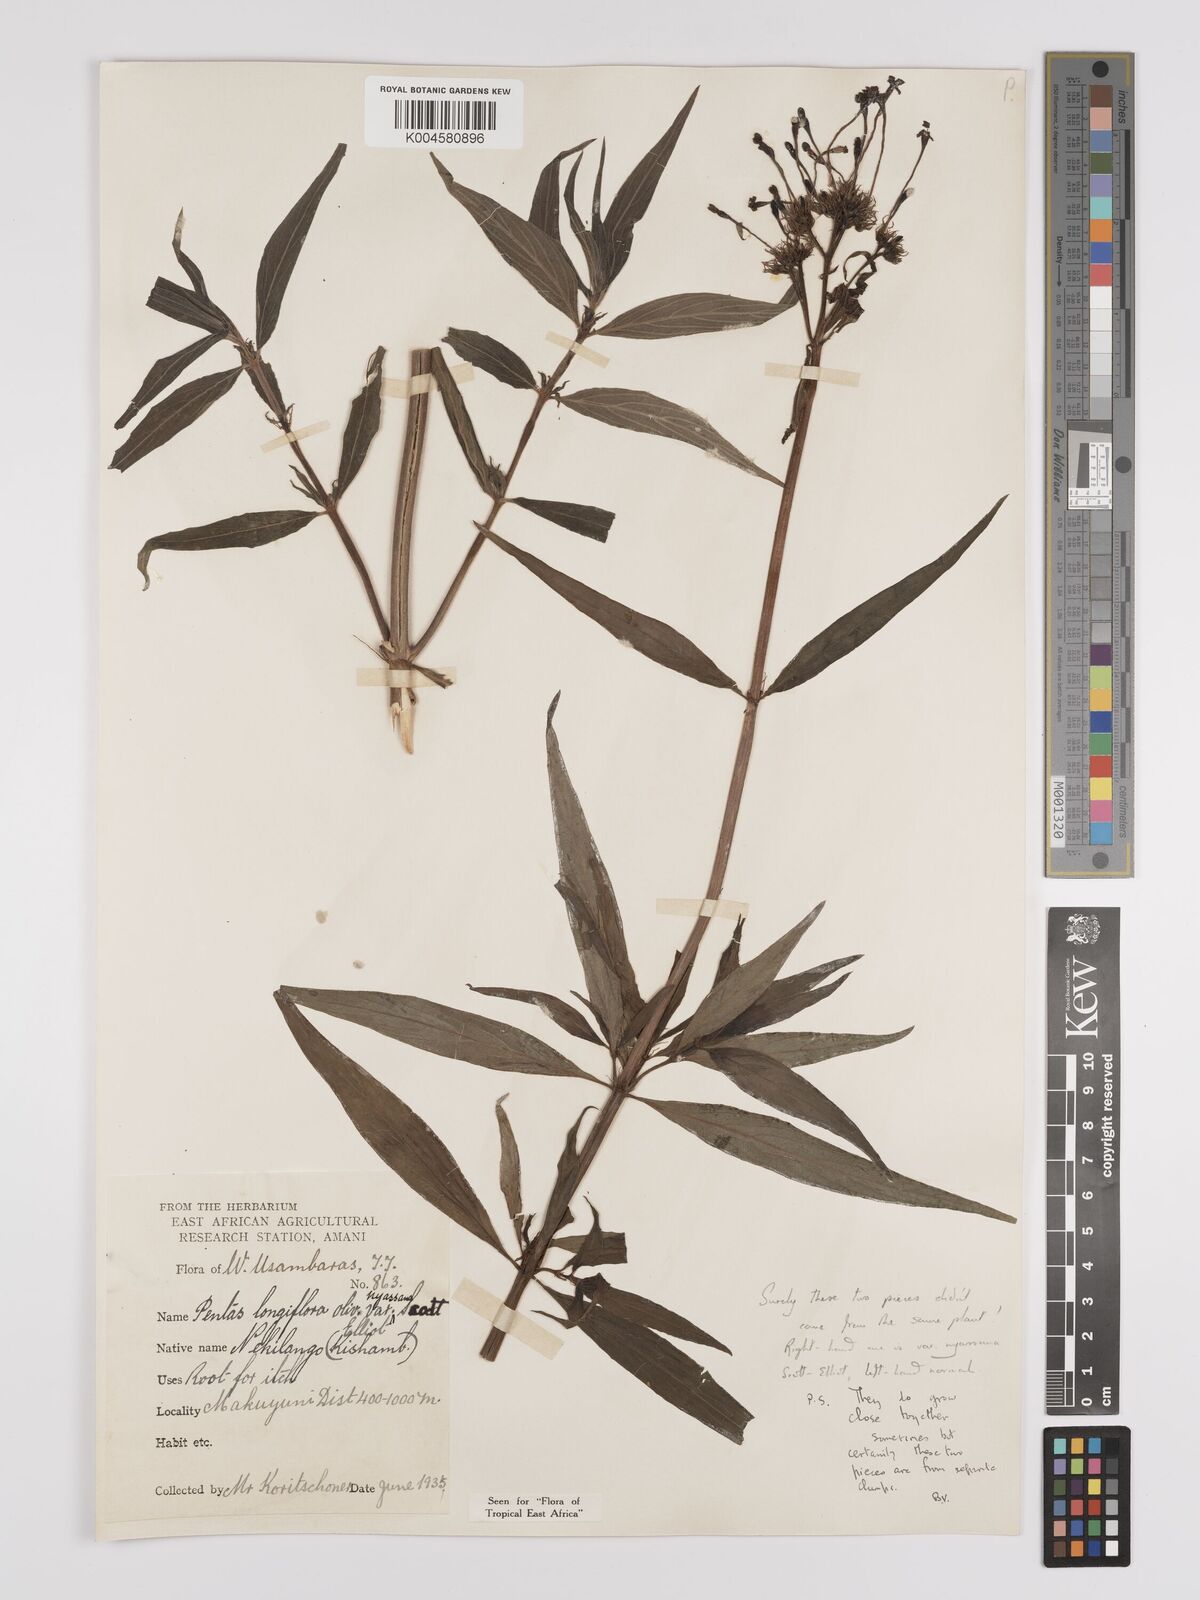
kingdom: Plantae
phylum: Tracheophyta
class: Magnoliopsida
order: Gentianales
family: Rubiaceae
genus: Dolichopentas
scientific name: Dolichopentas longiflora
